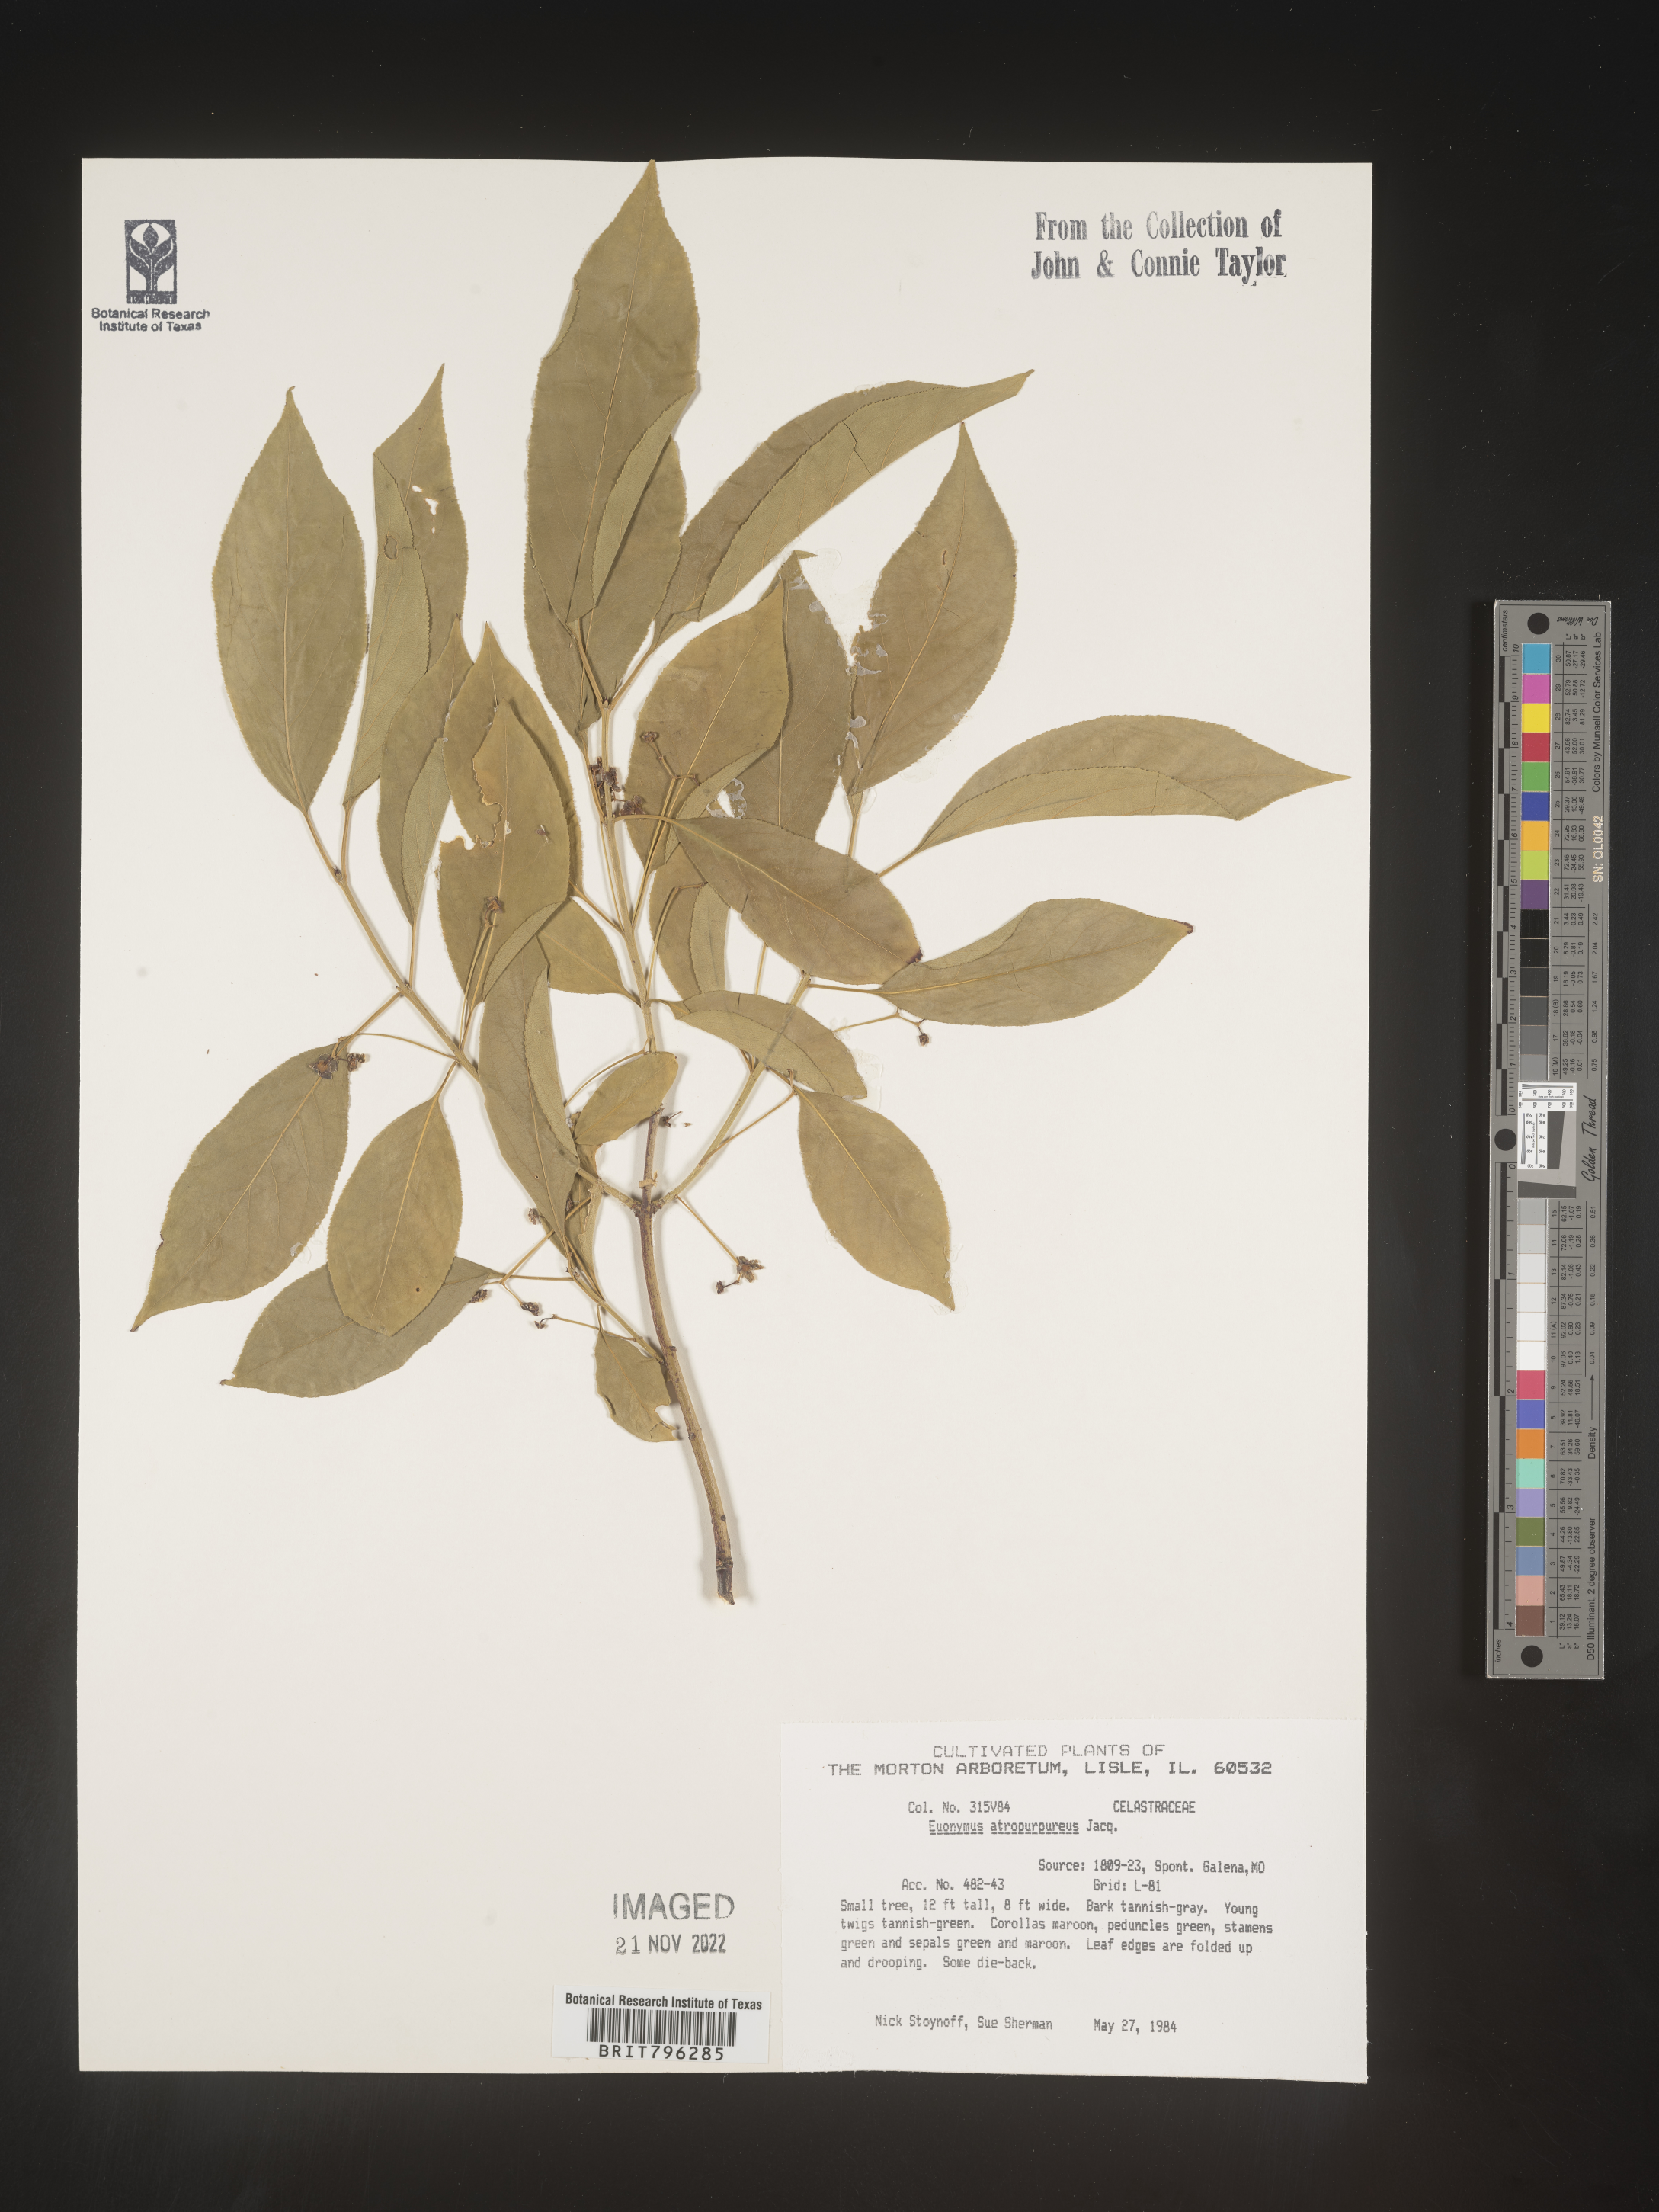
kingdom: Plantae
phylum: Tracheophyta
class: Magnoliopsida
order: Celastrales
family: Celastraceae
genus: Euonymus
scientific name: Euonymus
